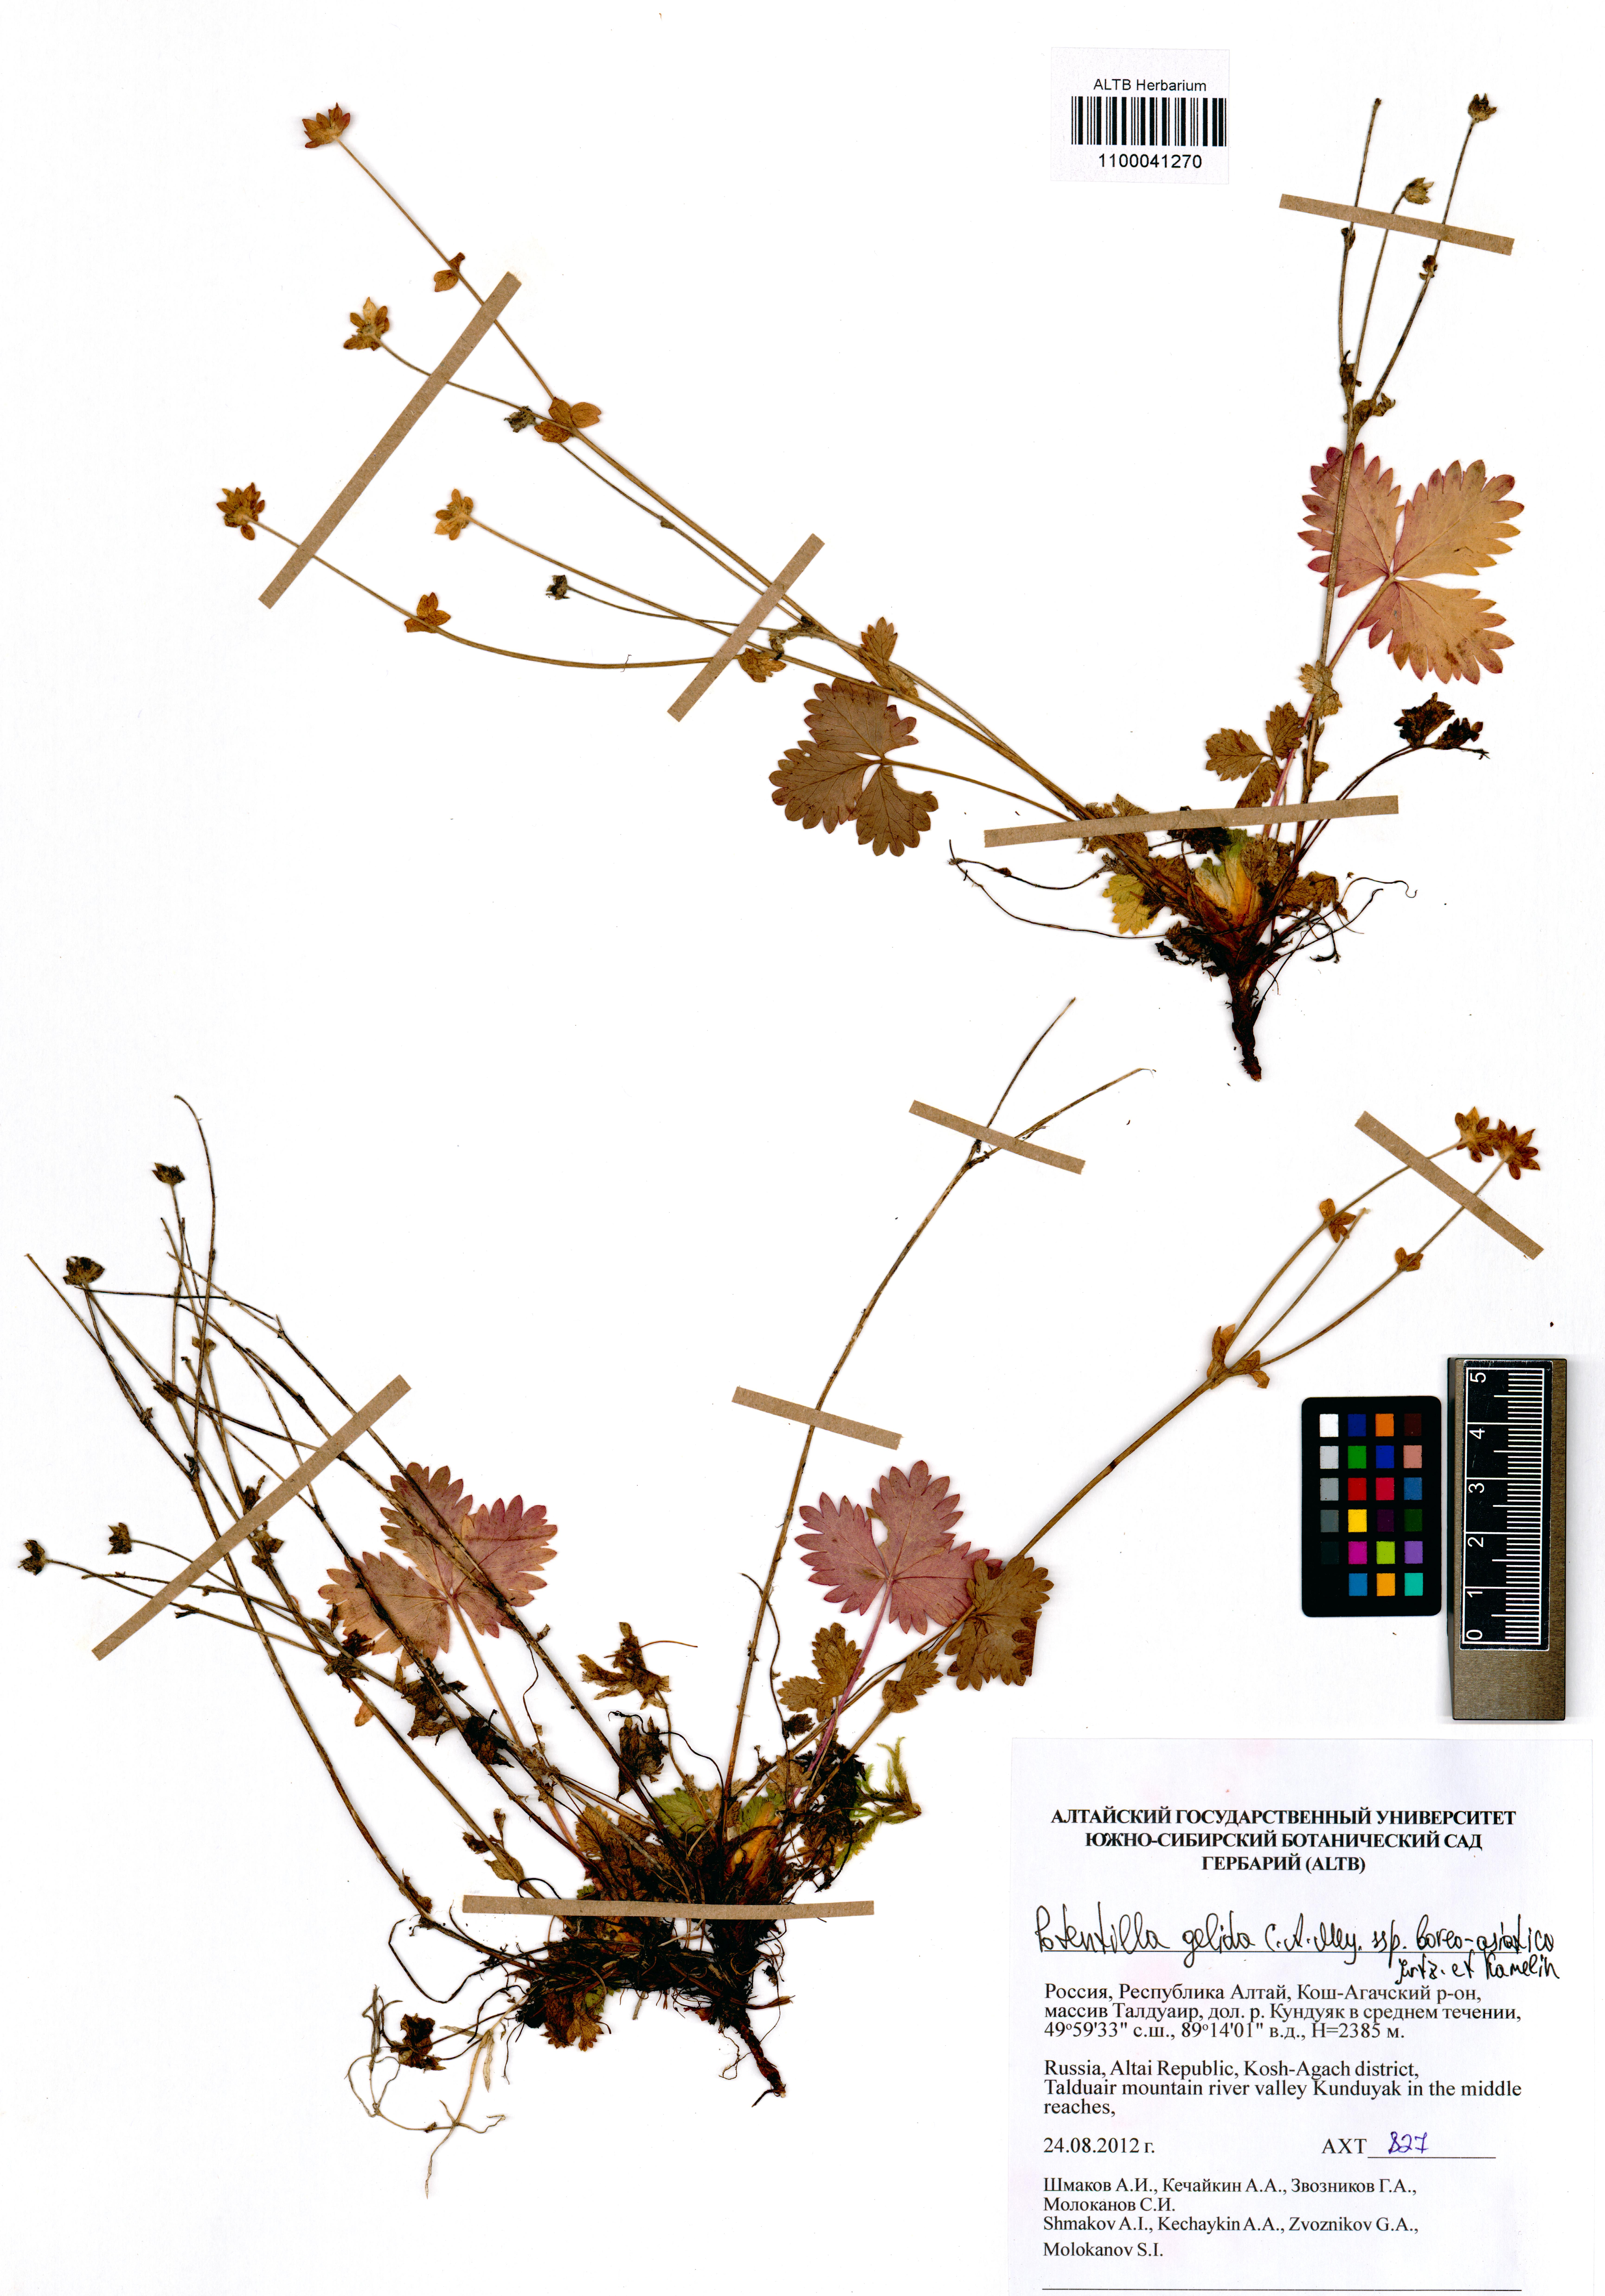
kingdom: Plantae
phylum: Tracheophyta
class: Magnoliopsida
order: Rosales
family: Rosaceae
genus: Potentilla
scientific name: Potentilla crantzii
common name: Alpine cinquefoil
